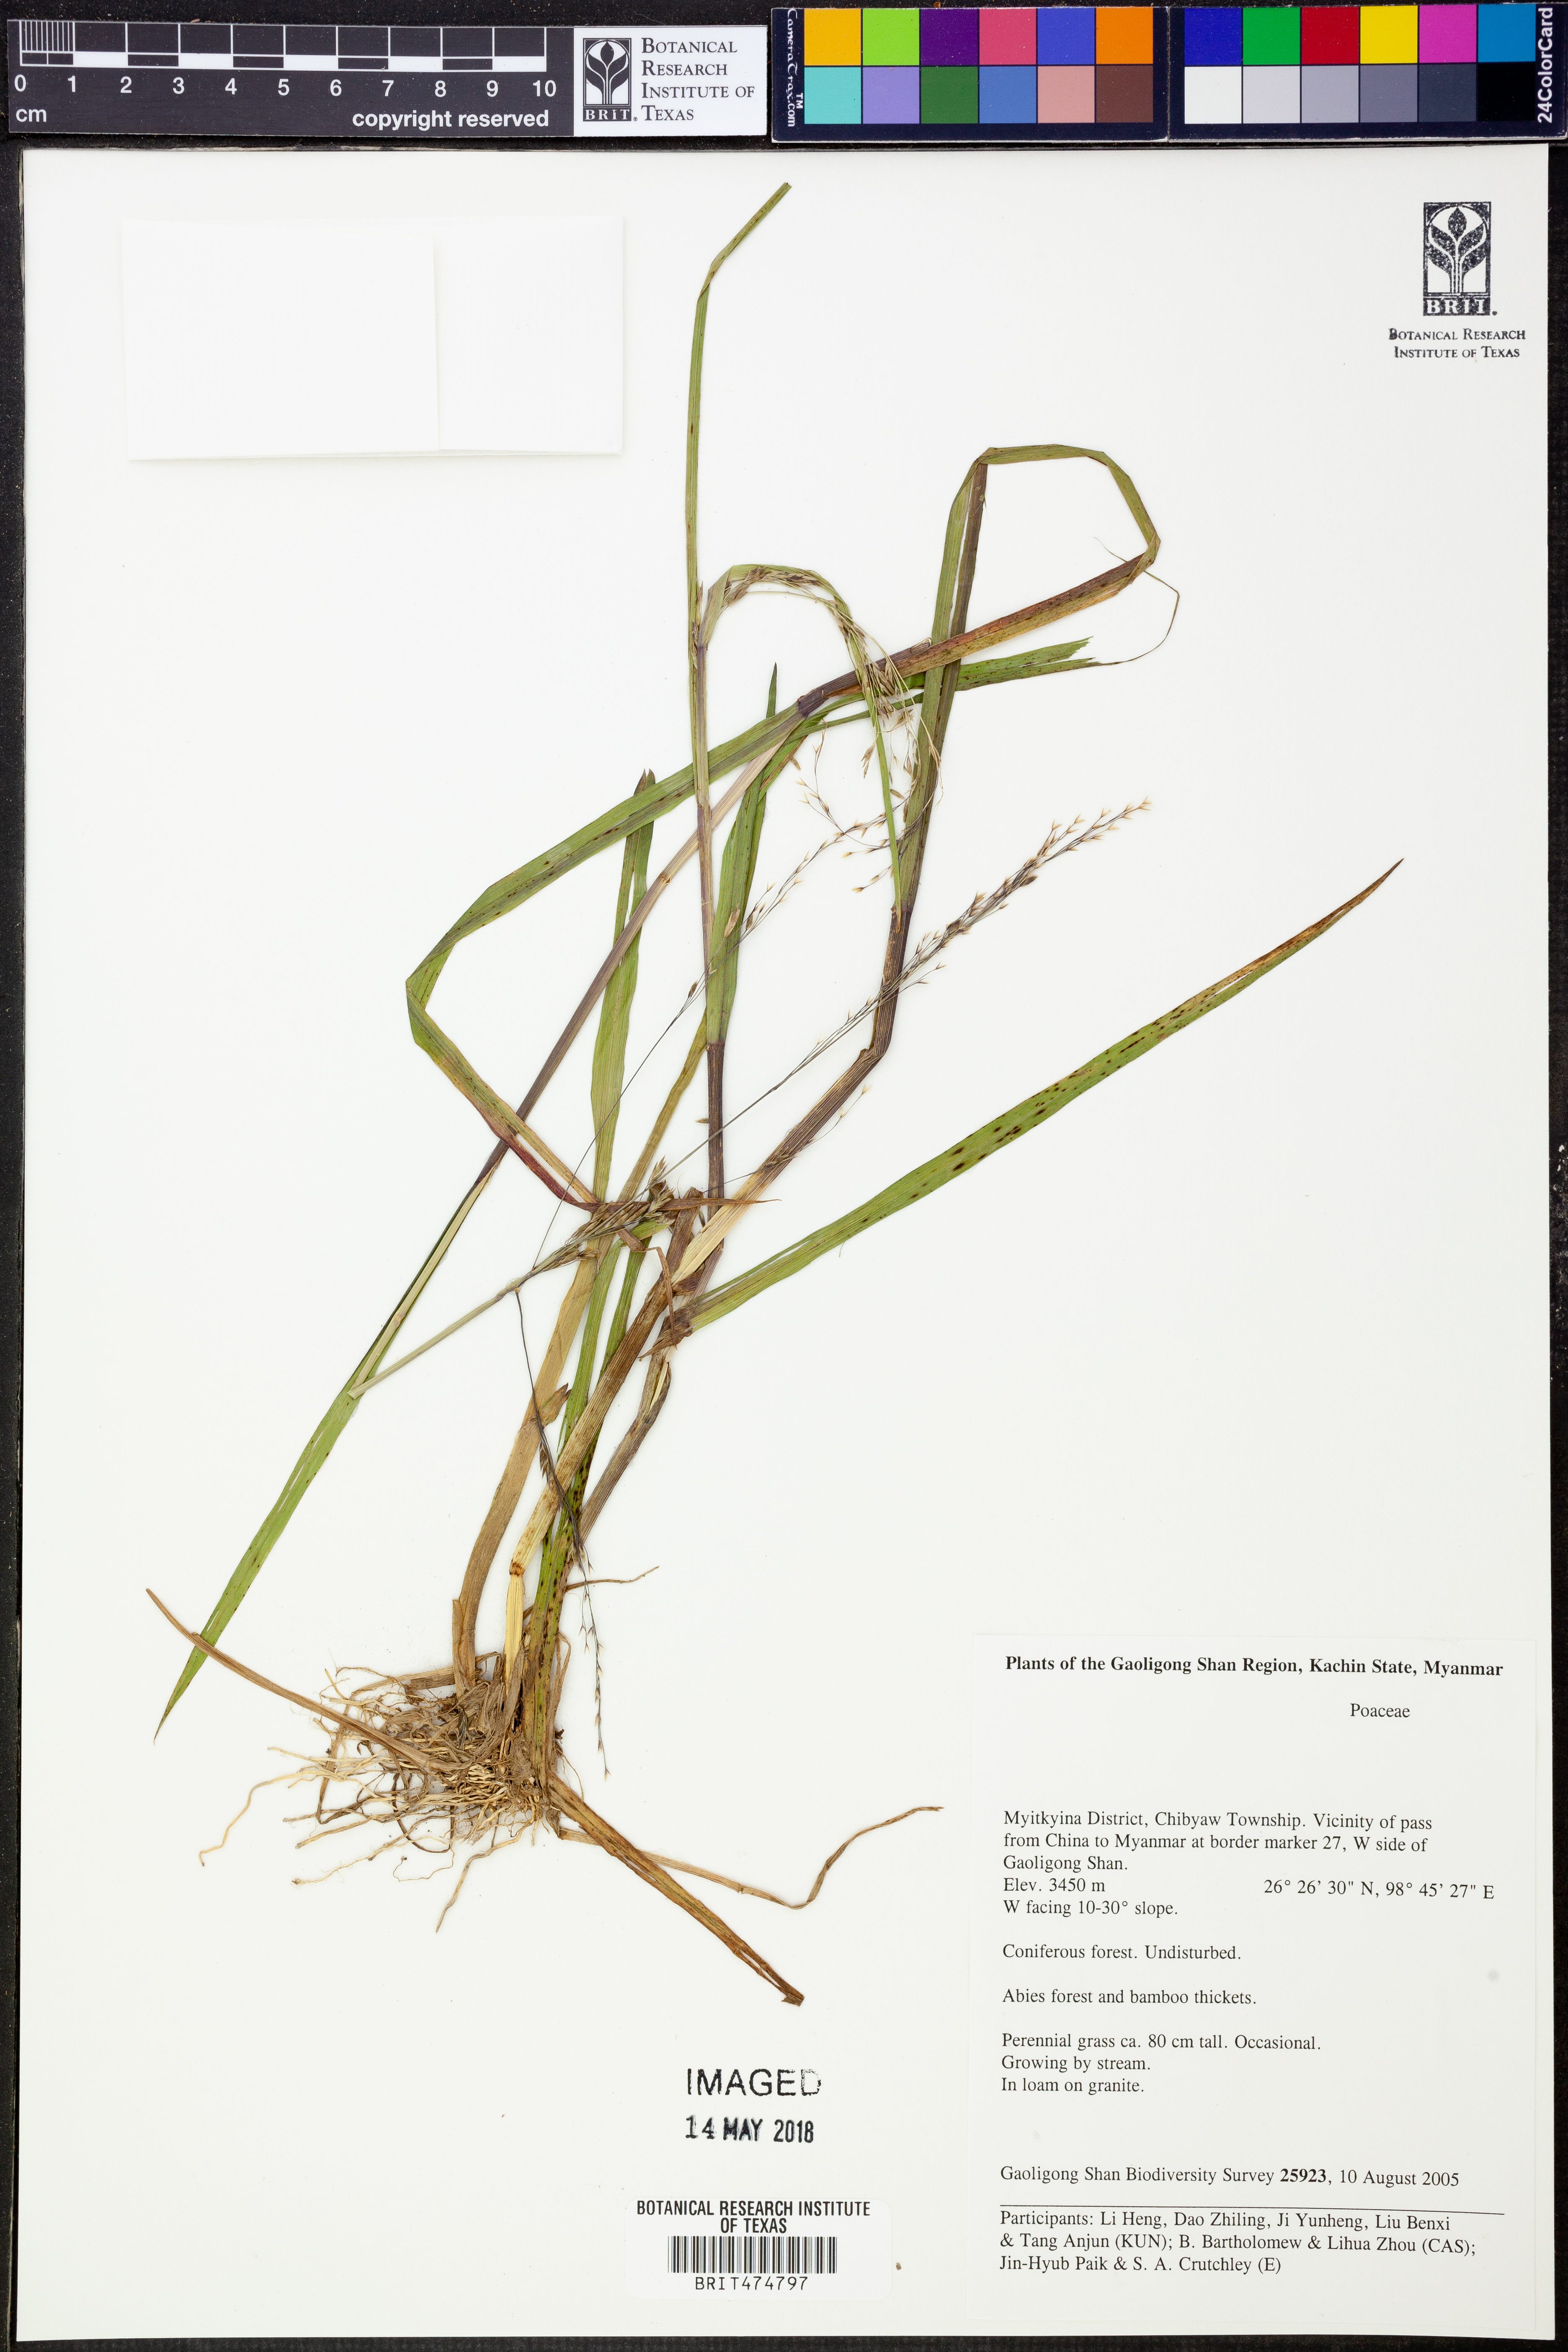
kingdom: Plantae
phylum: Tracheophyta
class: Liliopsida
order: Poales
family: Poaceae
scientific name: Poaceae
